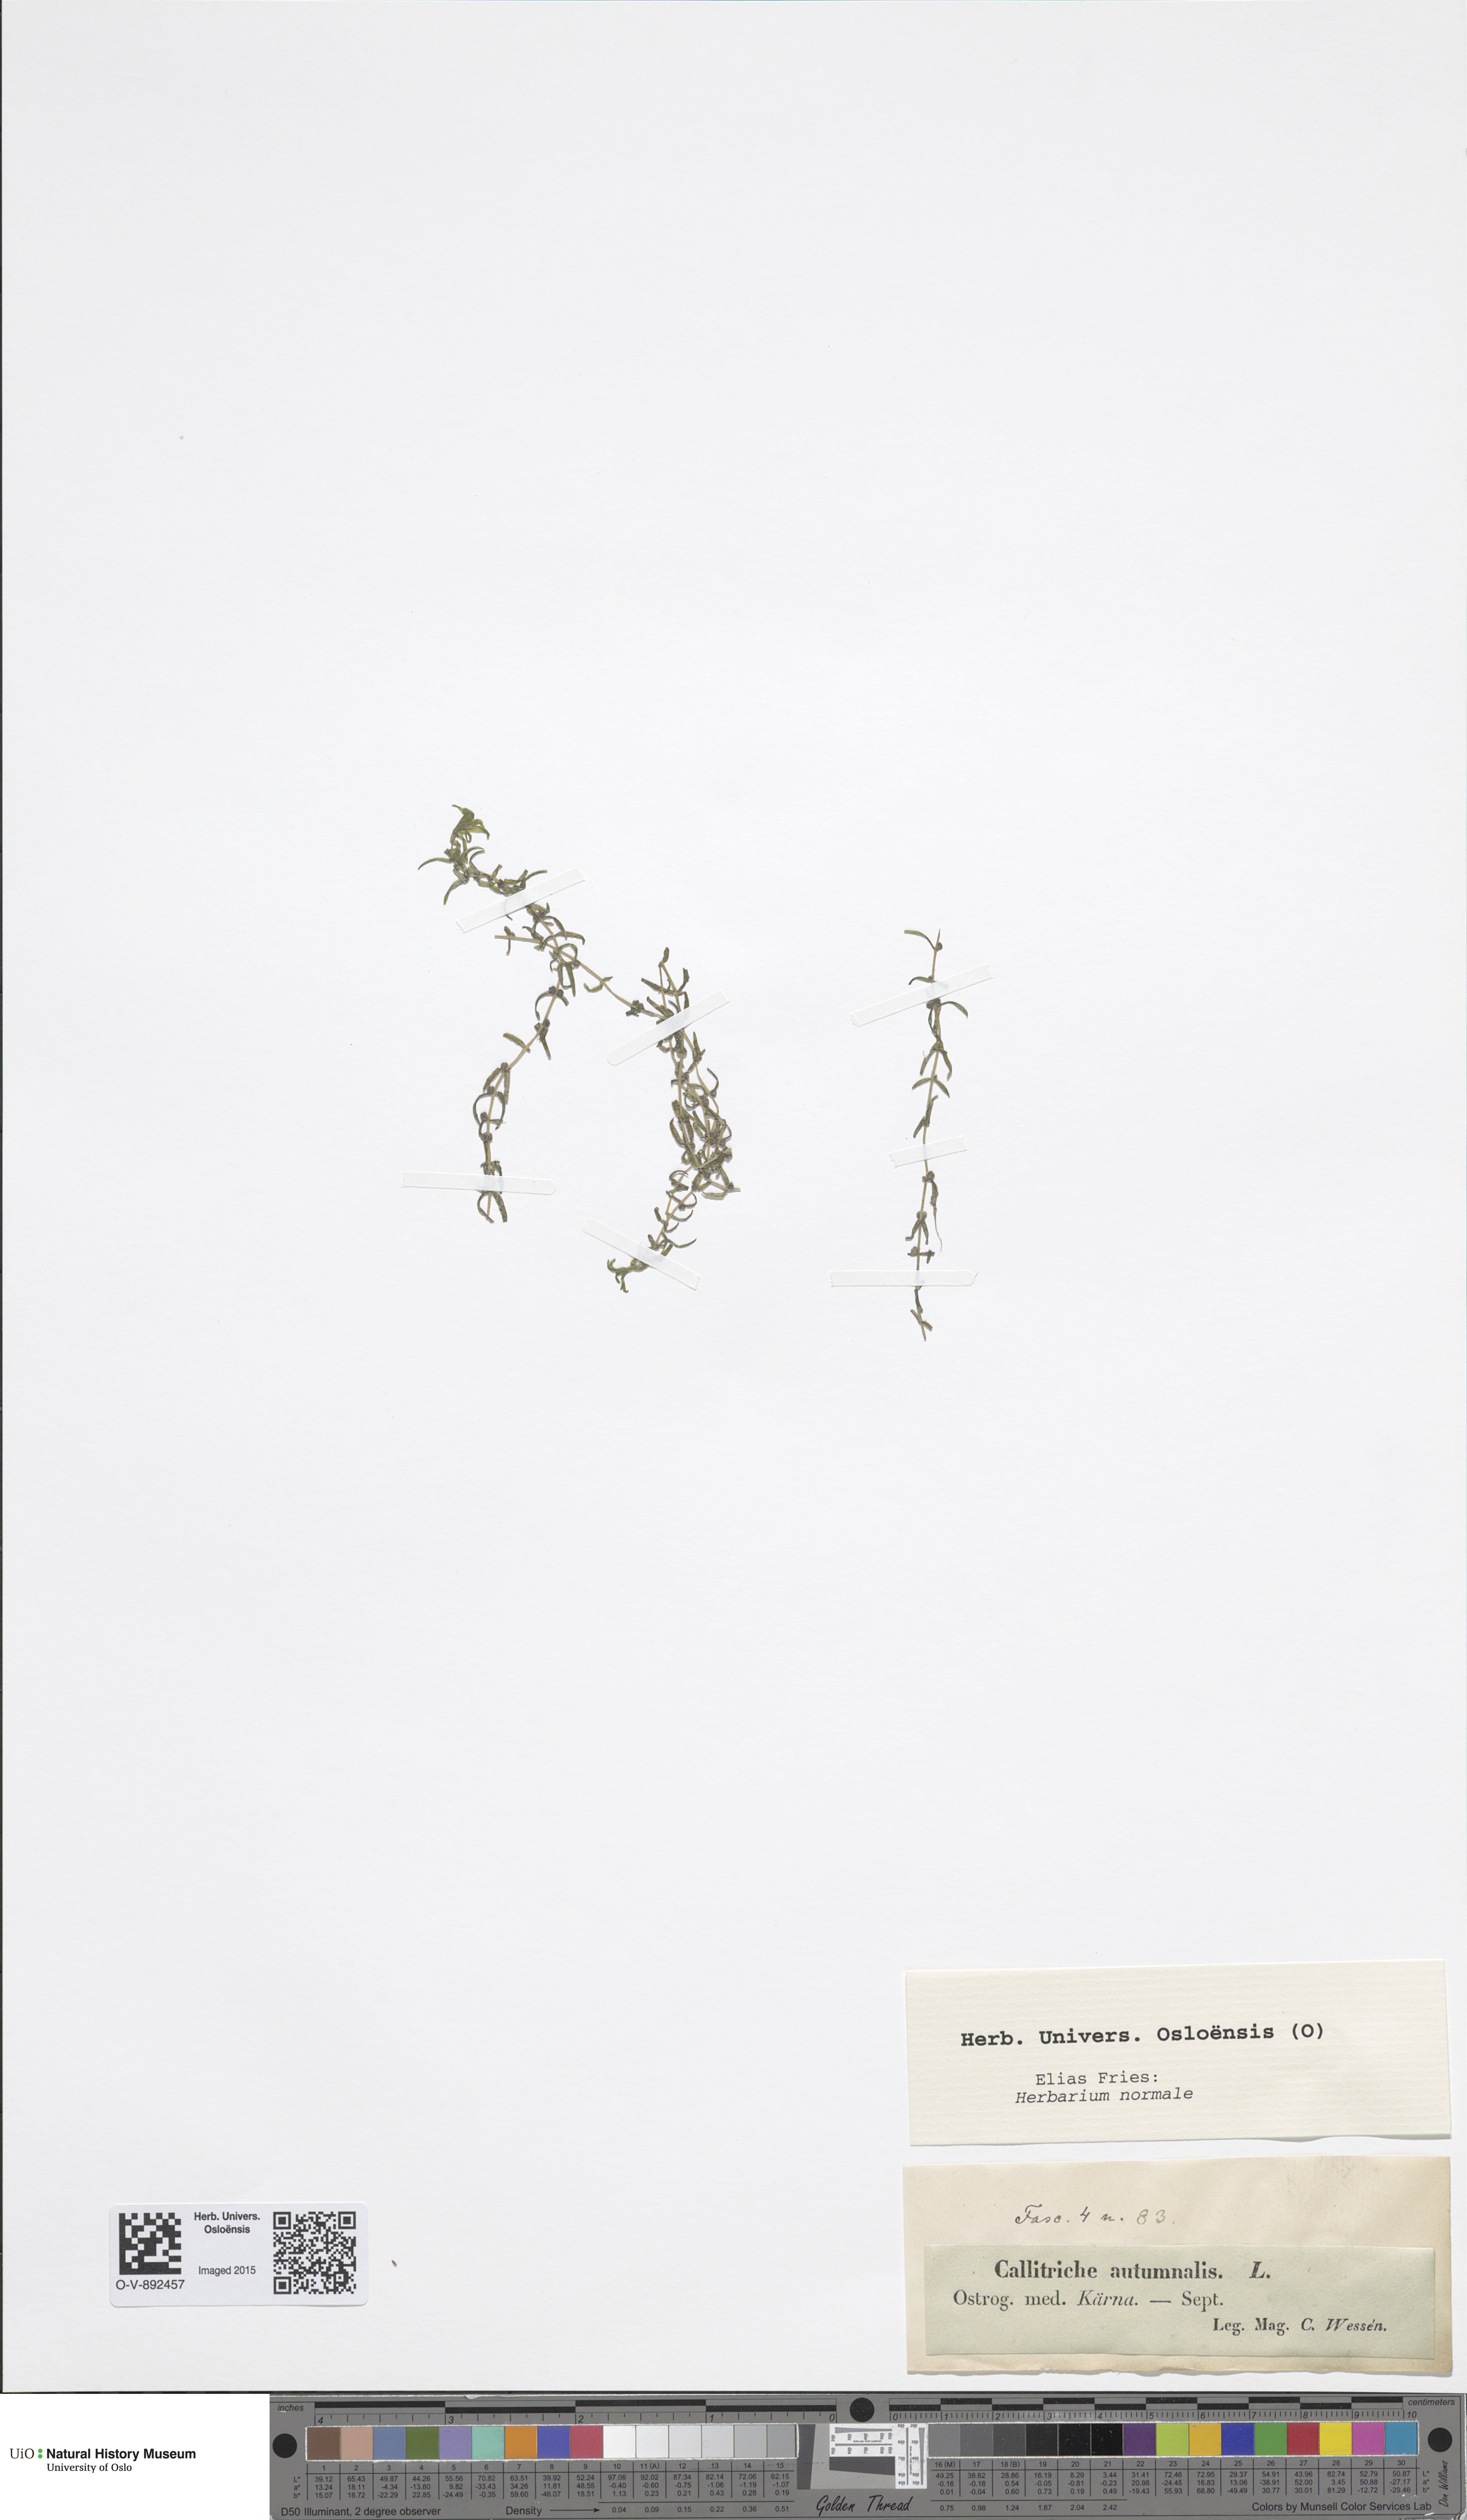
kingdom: Plantae
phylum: Tracheophyta
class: Magnoliopsida
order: Lamiales
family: Plantaginaceae
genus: Callitriche
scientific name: Callitriche hermaphroditica
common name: Autumnal water-starwort
